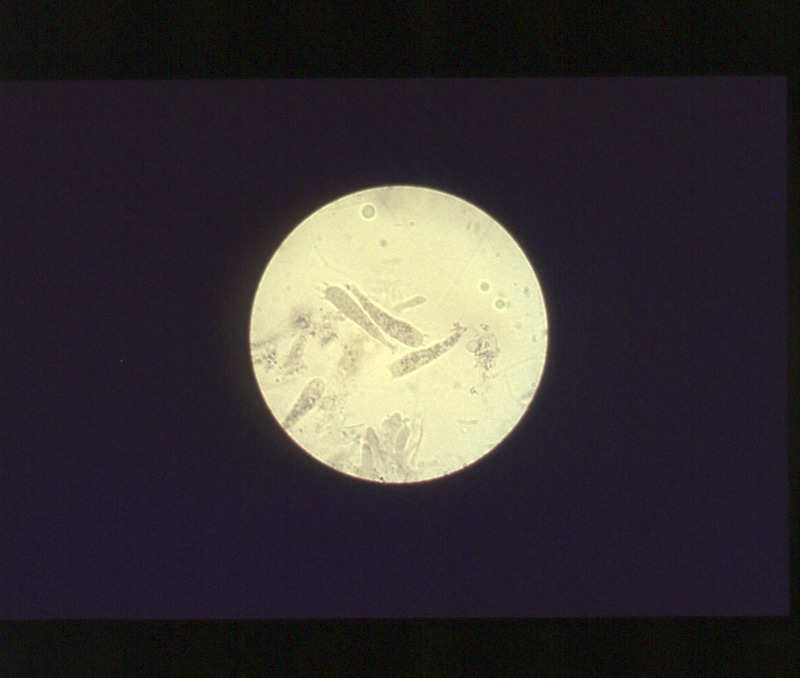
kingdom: Fungi
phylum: Basidiomycota
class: Agaricomycetes
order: Agaricales
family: Lyophyllaceae
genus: Lyophyllum
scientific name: Lyophyllum decastes
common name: Clustered domecap
